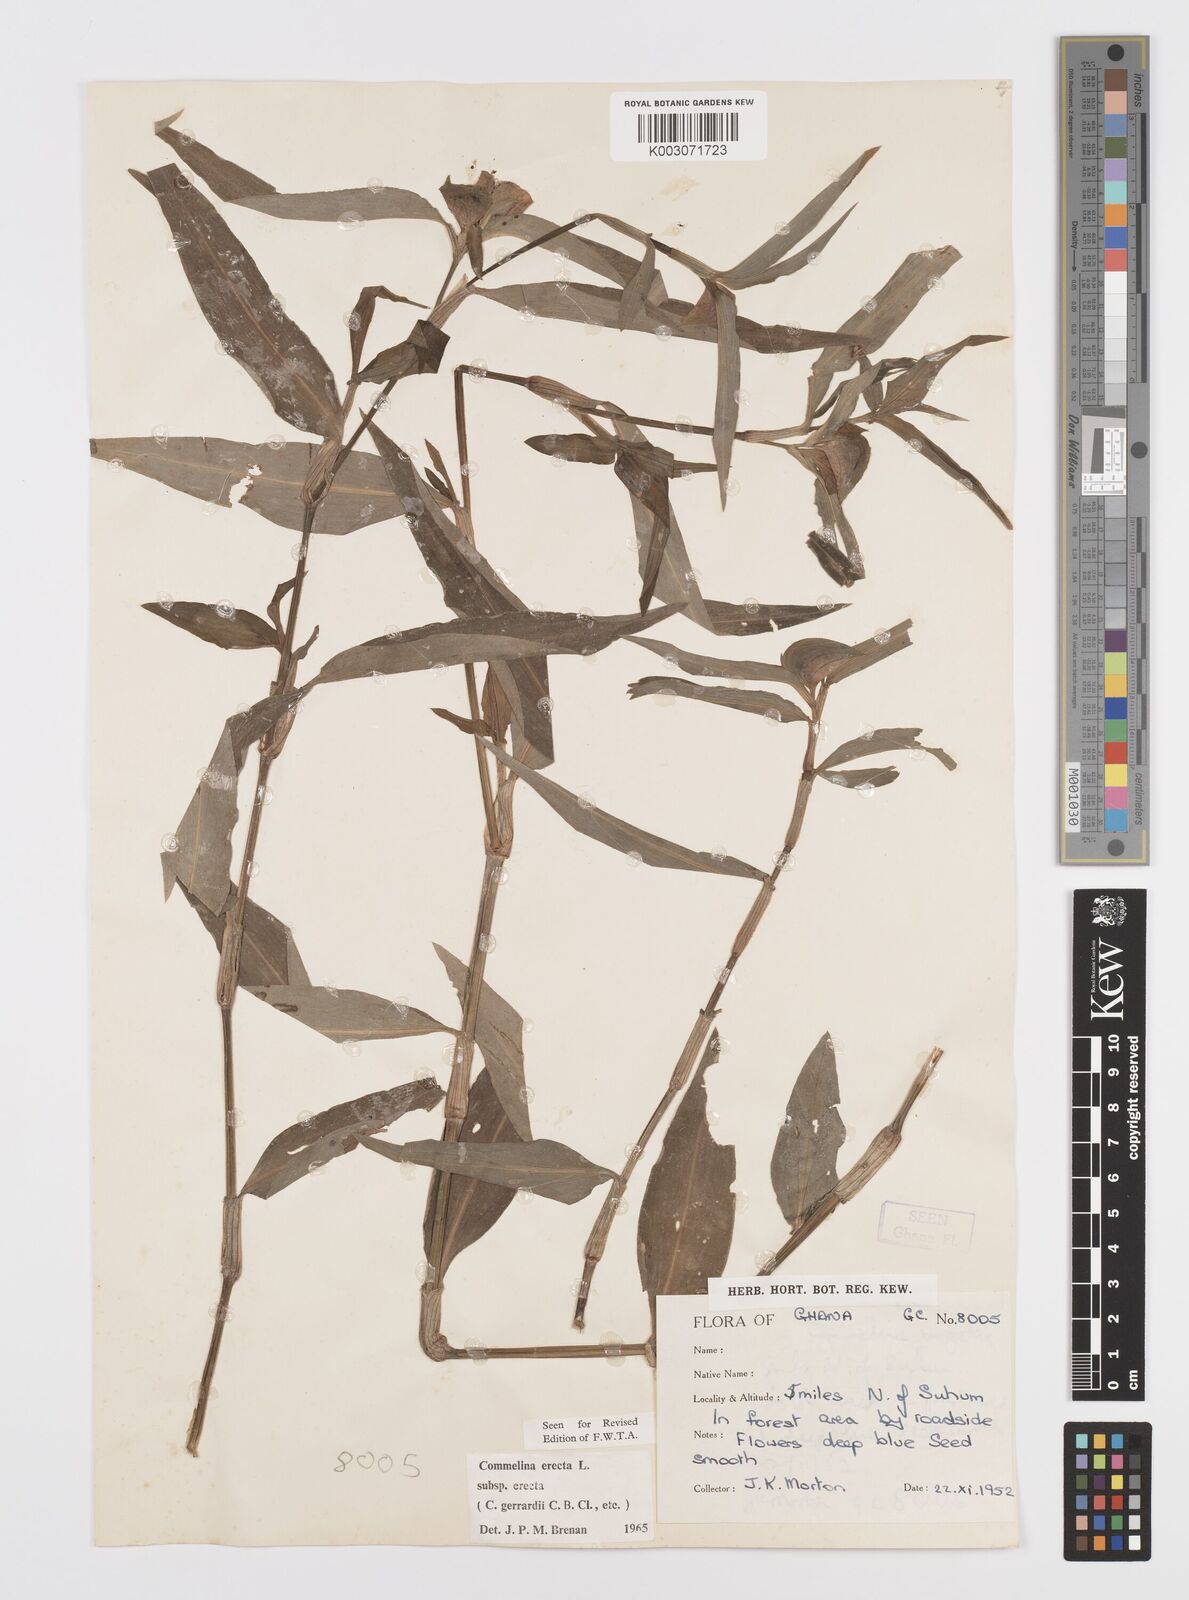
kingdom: Plantae
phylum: Tracheophyta
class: Liliopsida
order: Commelinales
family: Commelinaceae
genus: Commelina
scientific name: Commelina erecta
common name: Blousel blommetjie
